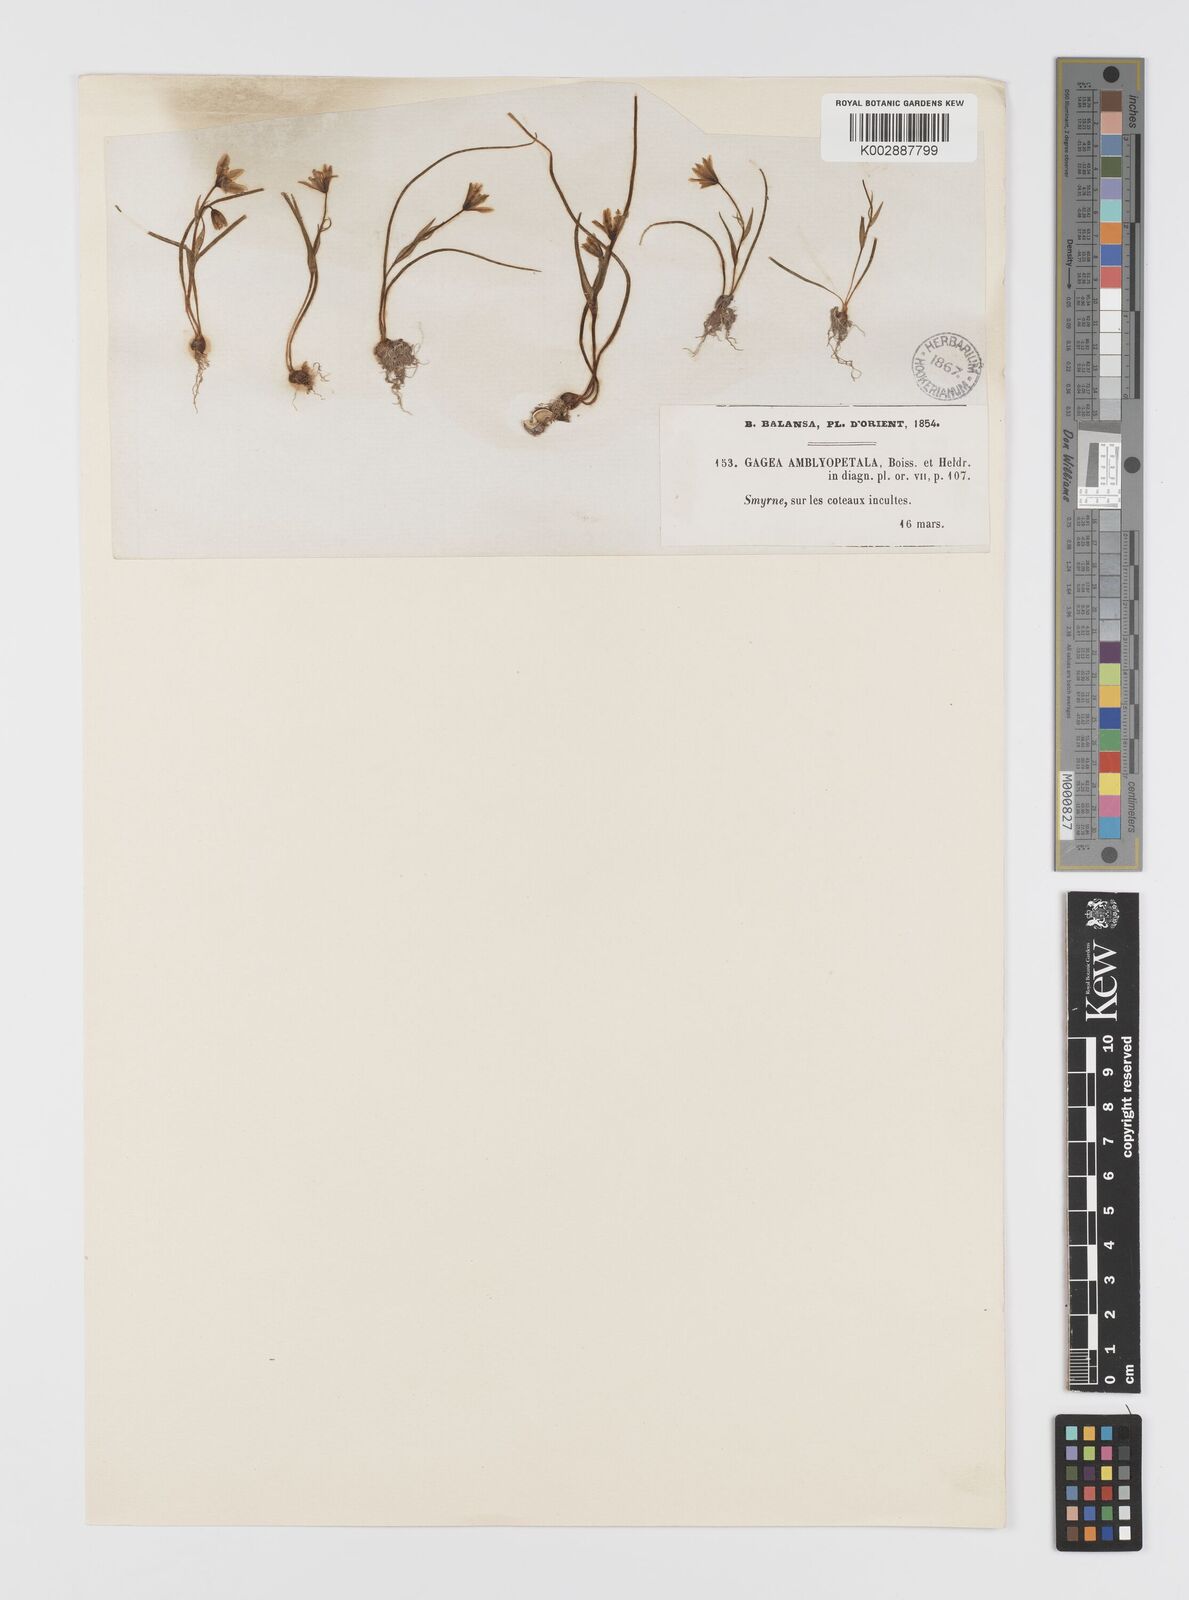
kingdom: Plantae
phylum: Tracheophyta
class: Liliopsida
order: Liliales
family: Liliaceae
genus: Gagea
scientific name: Gagea longifolia
